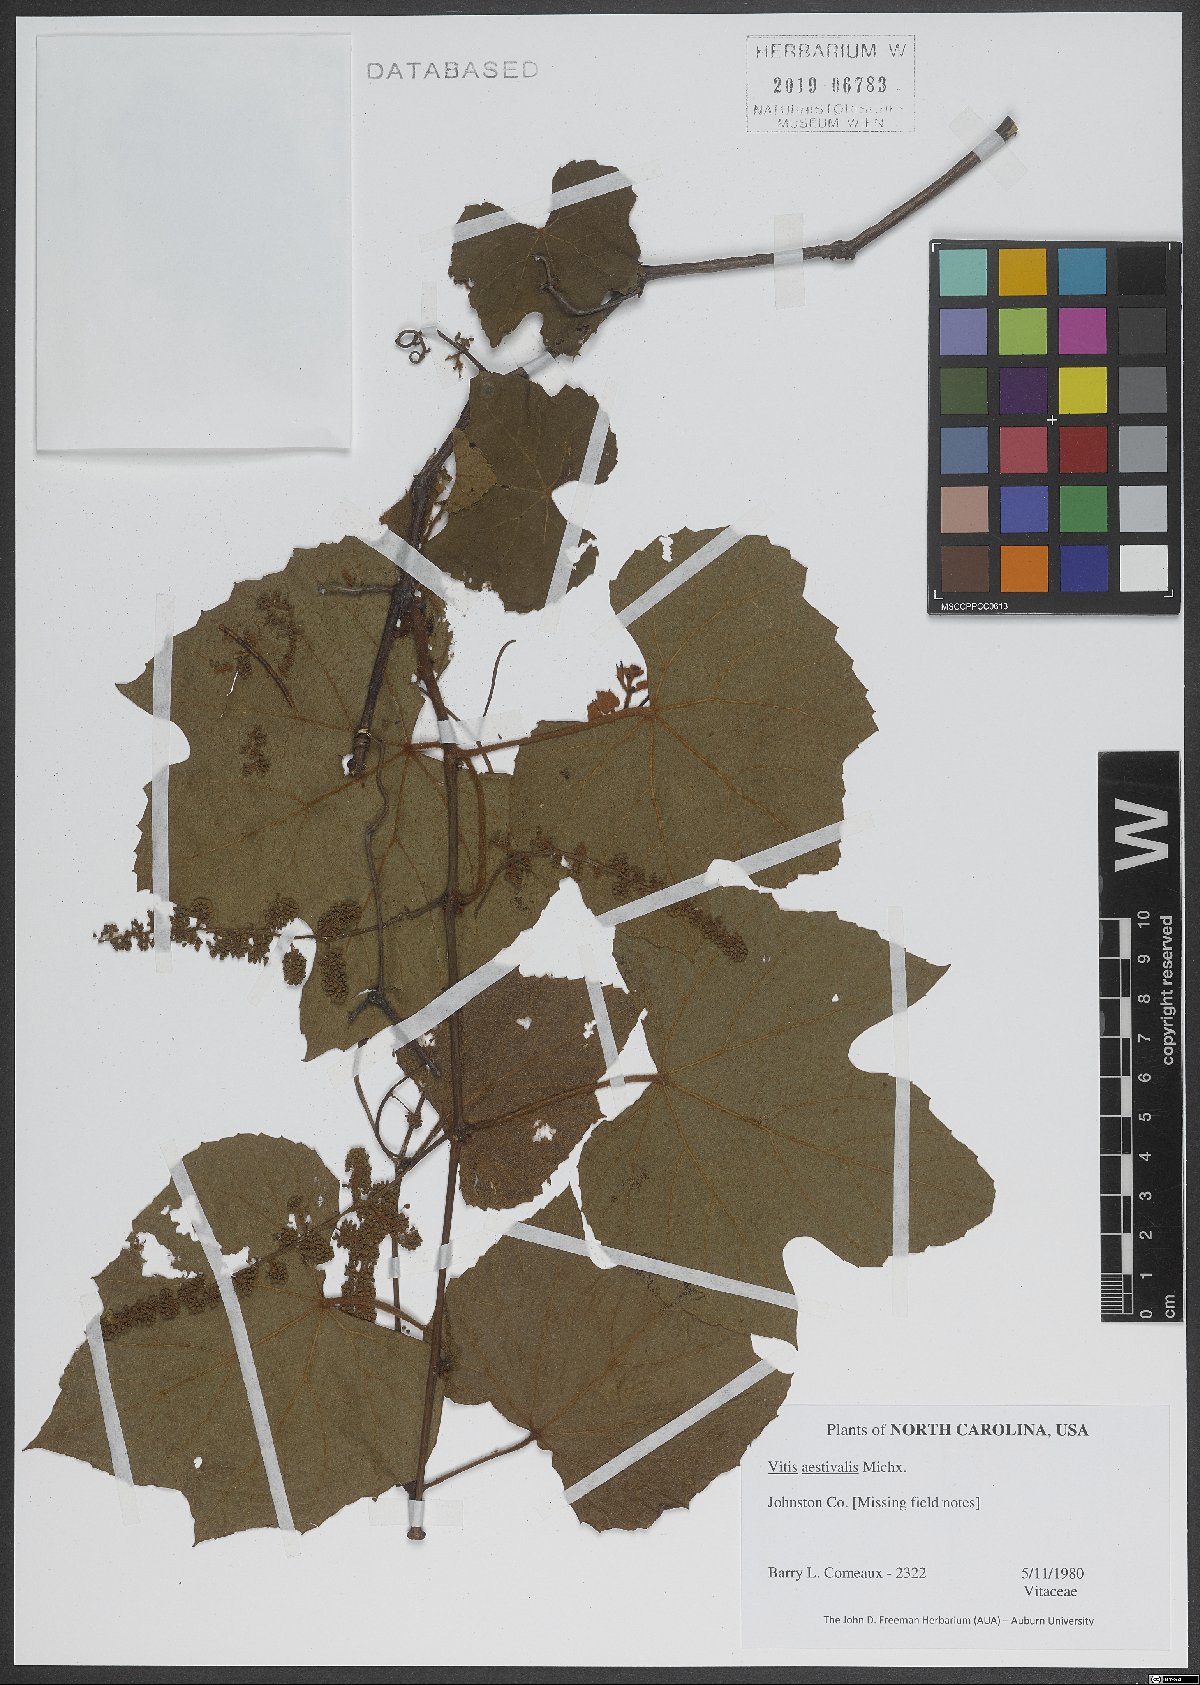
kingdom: Plantae
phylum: Tracheophyta
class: Magnoliopsida
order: Vitales
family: Vitaceae
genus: Vitis
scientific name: Vitis aestivalis
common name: Pigeon grape
